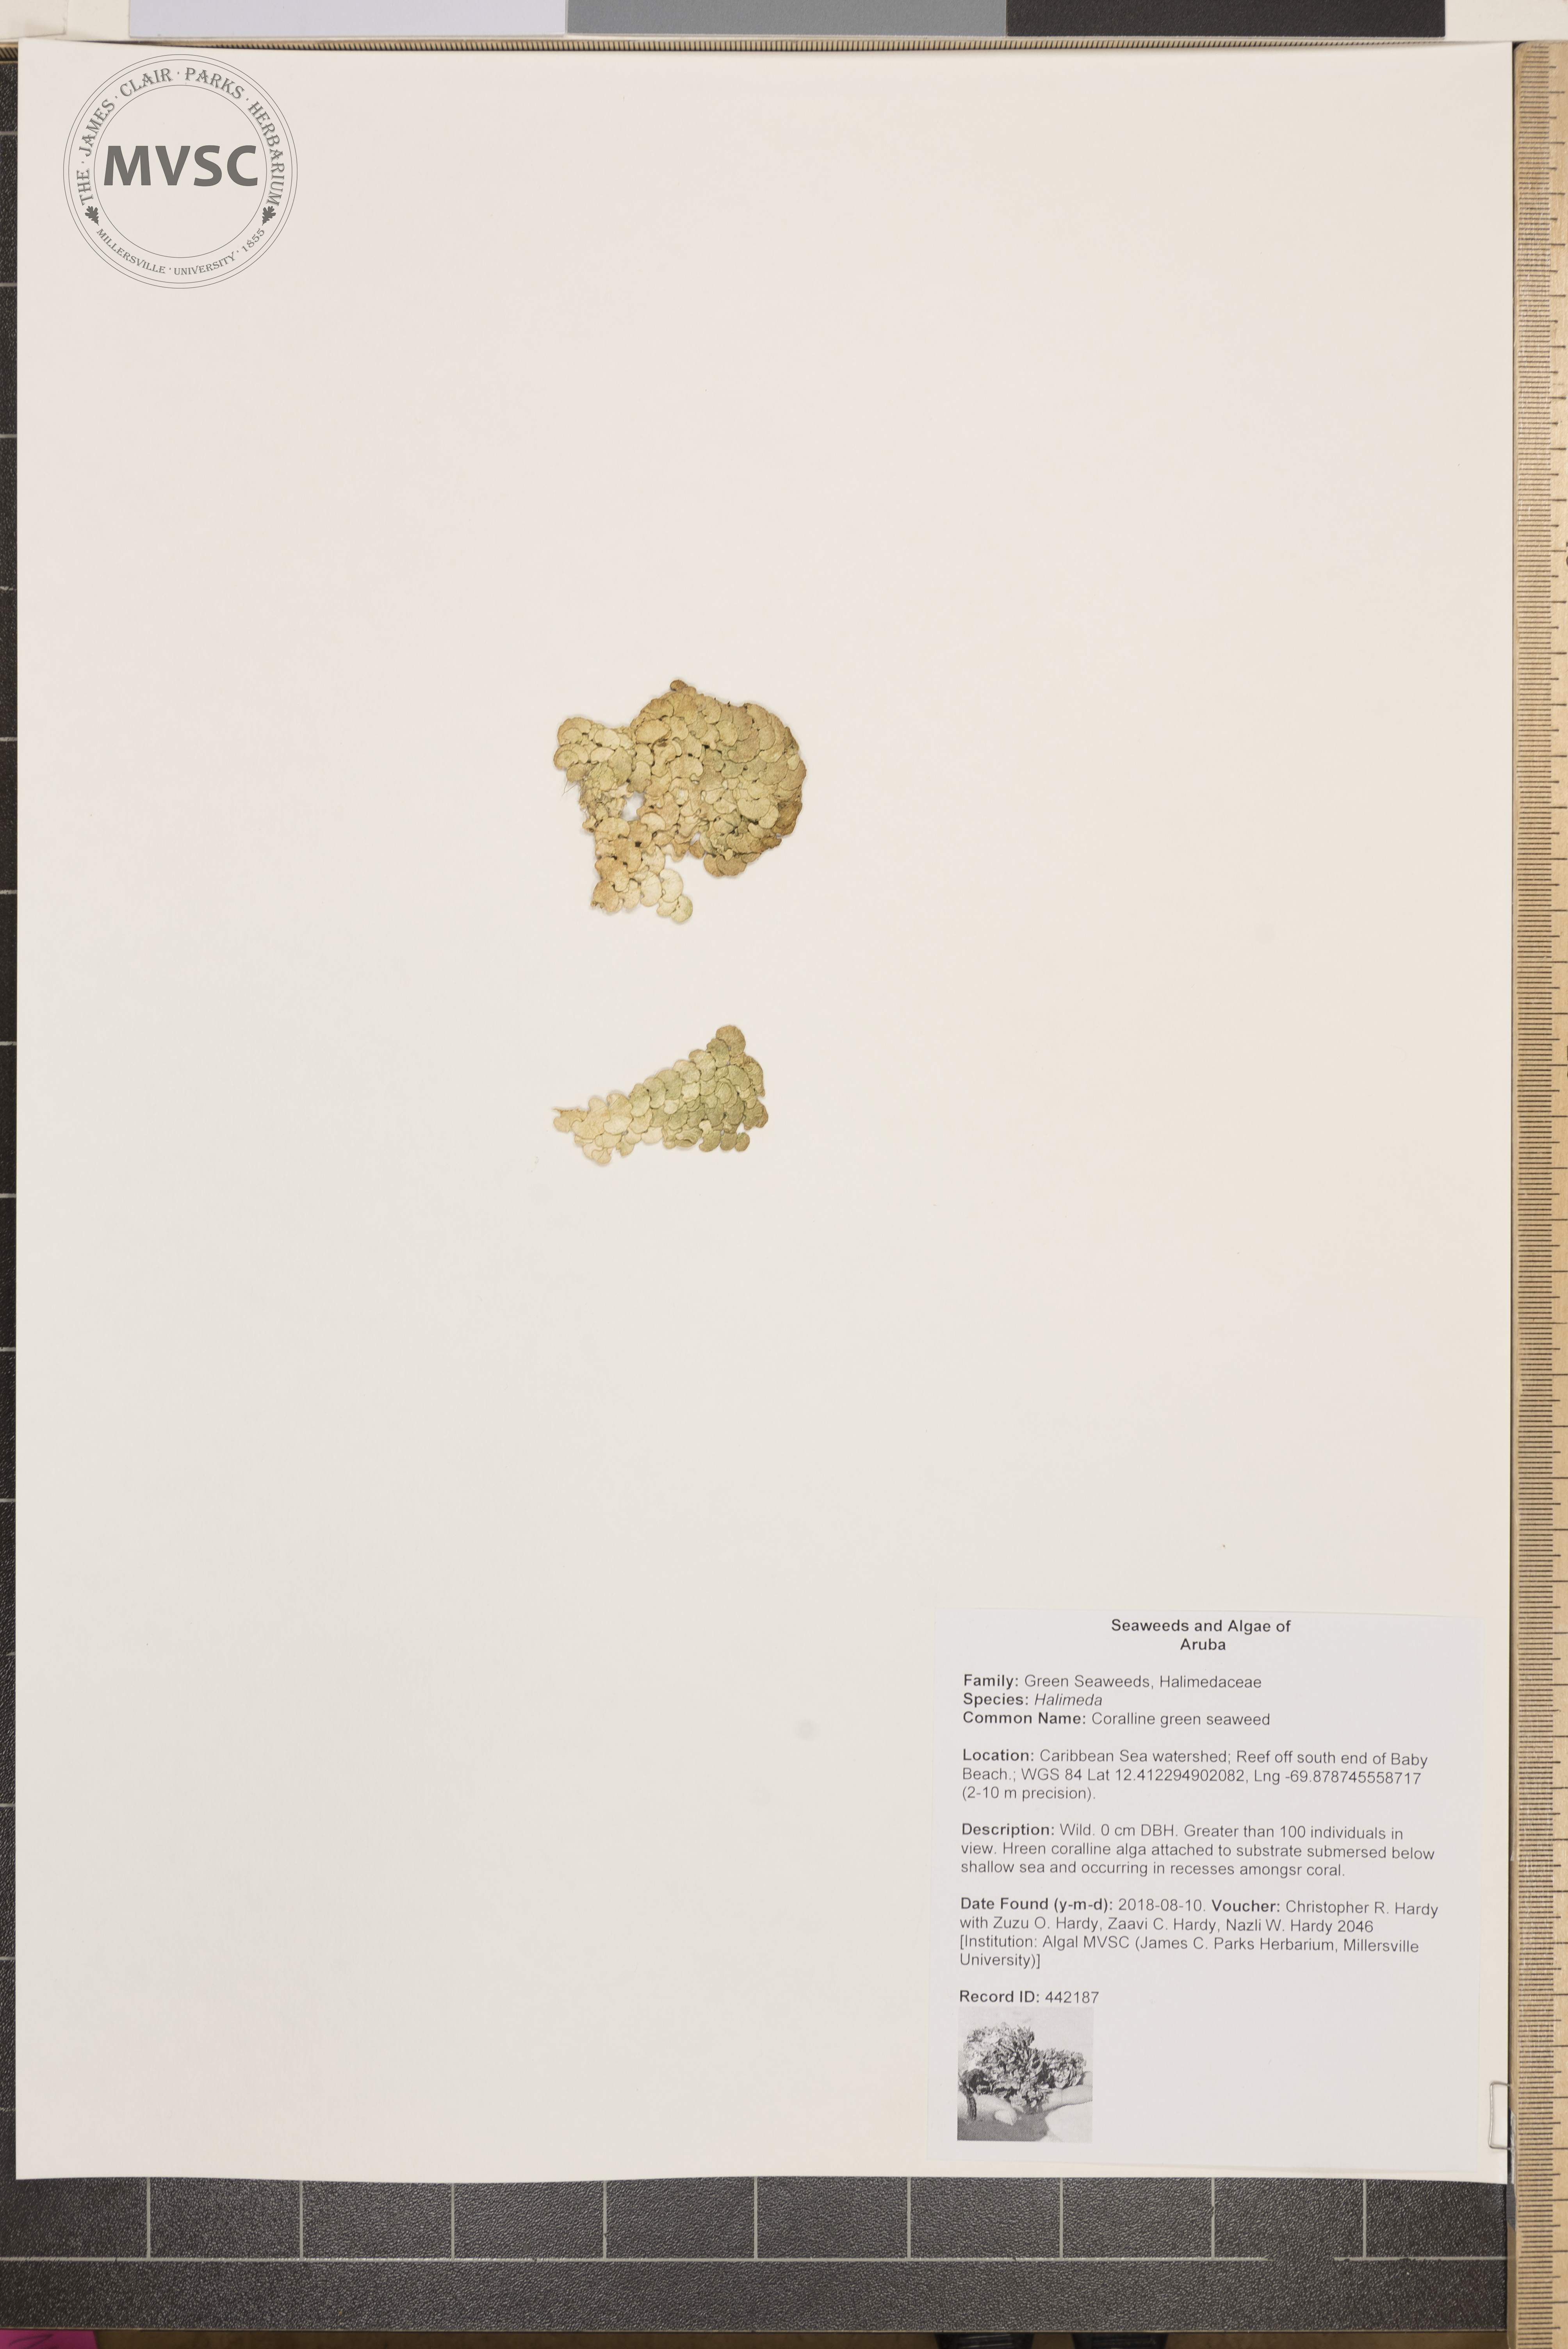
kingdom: Plantae
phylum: Chlorophyta
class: Ulvophyceae
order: Bryopsidales
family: Halimedaceae
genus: Halimeda
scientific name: Halimeda
